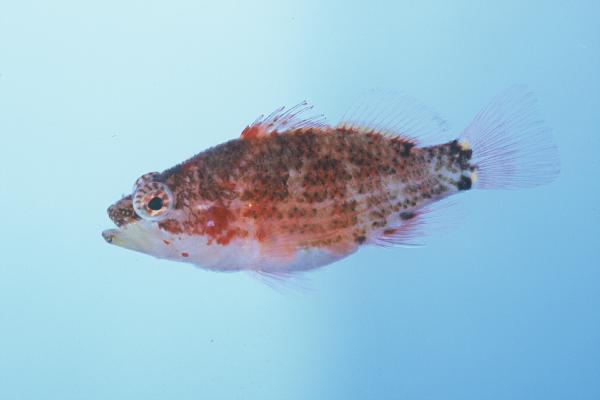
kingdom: Animalia
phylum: Chordata
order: Perciformes
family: Serranidae
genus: Plectranthias
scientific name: Plectranthias longimanus
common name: Longfin perchlet
